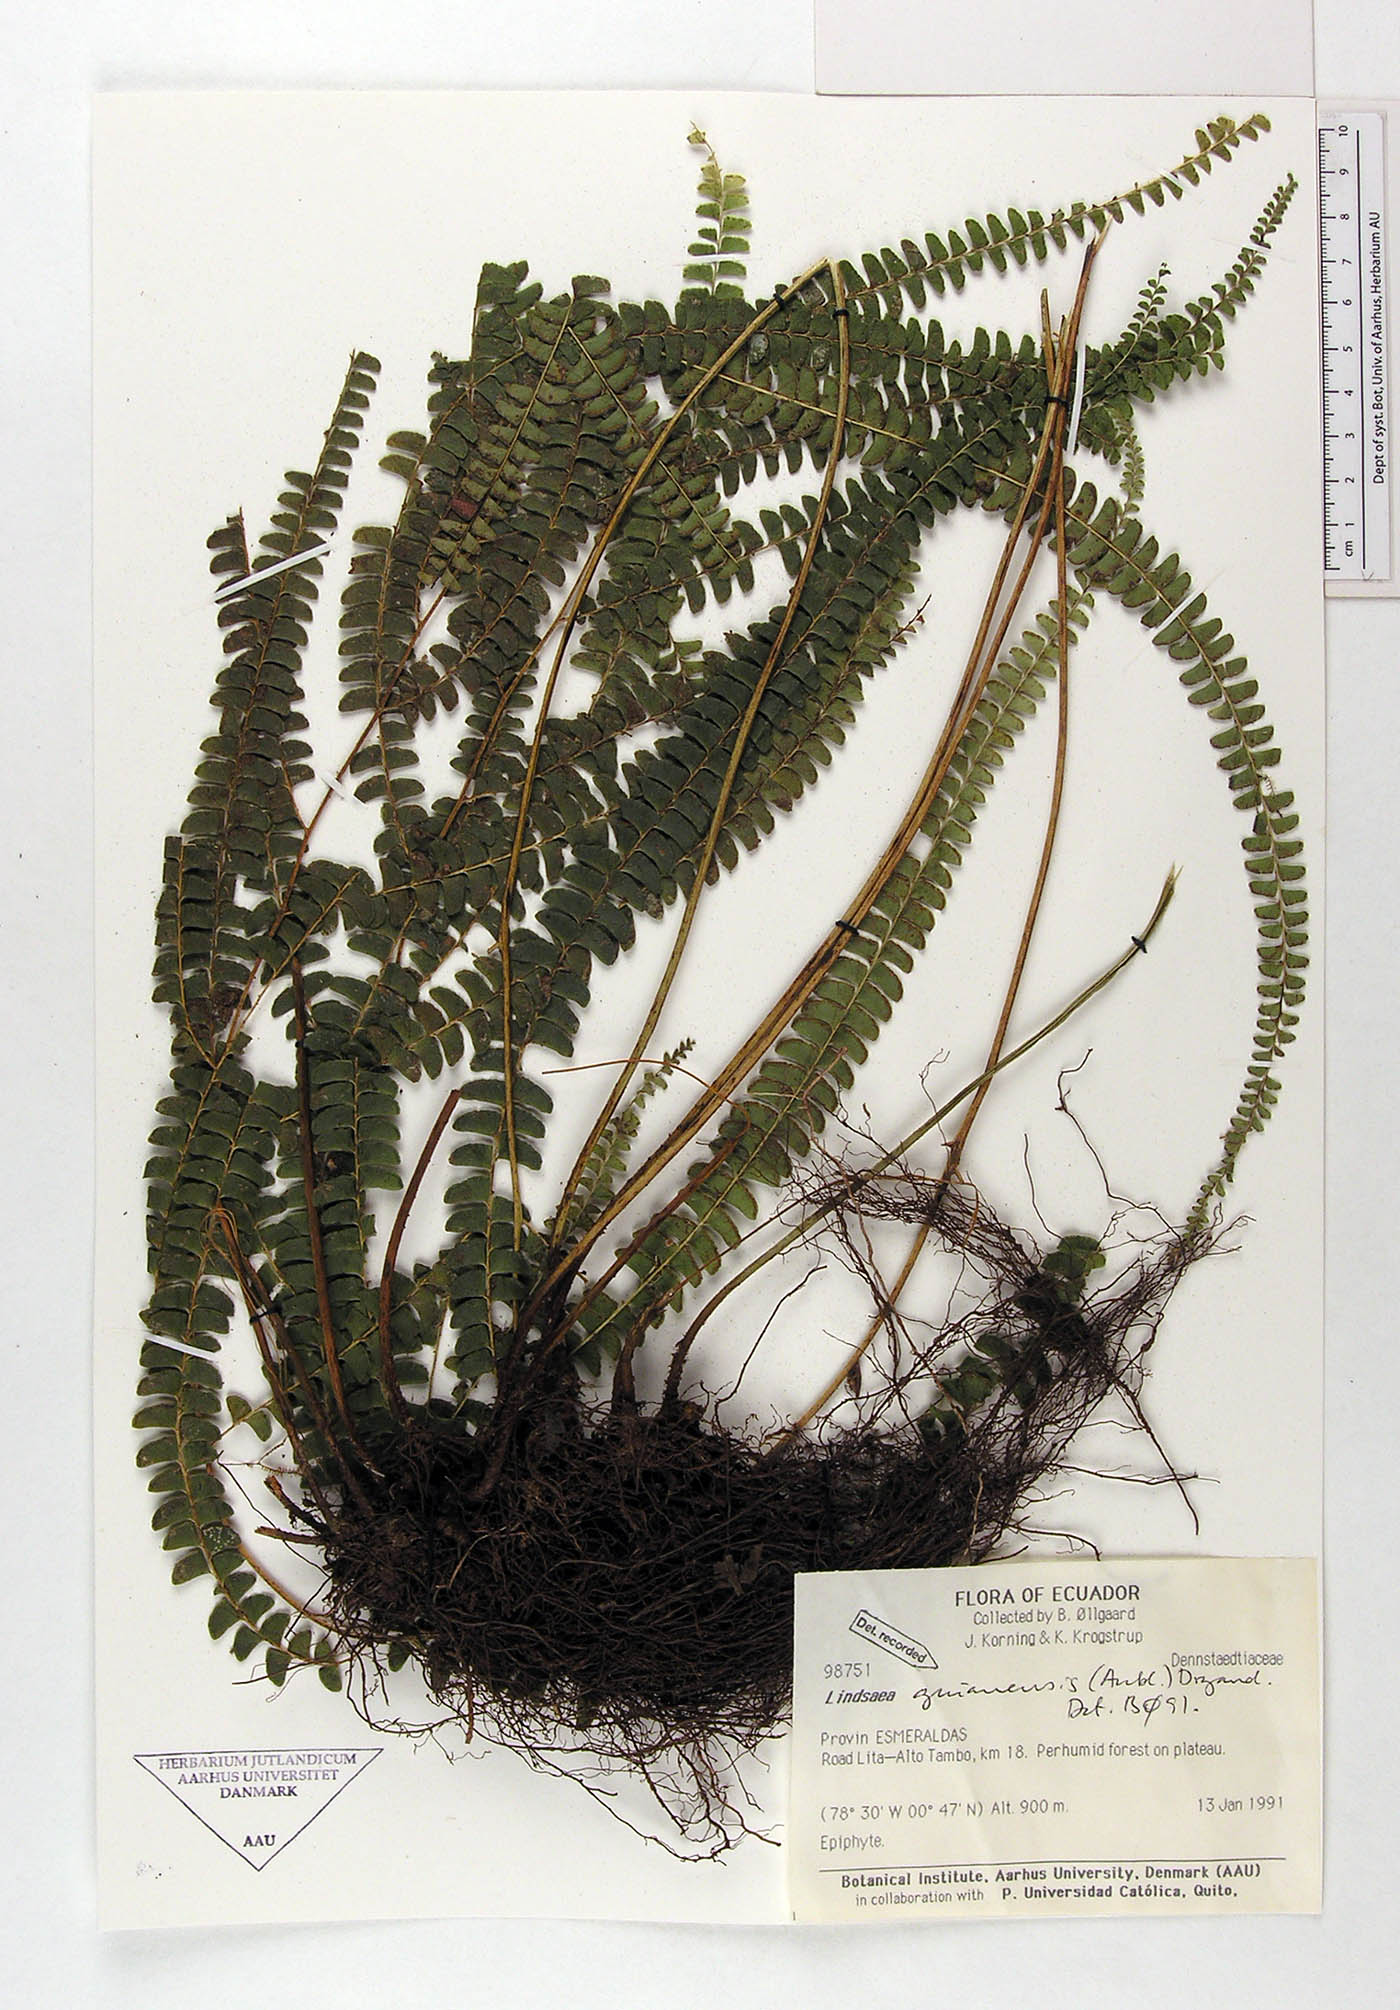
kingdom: Plantae
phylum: Tracheophyta
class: Polypodiopsida
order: Polypodiales
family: Lindsaeaceae
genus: Lindsaea
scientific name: Lindsaea guianensis
